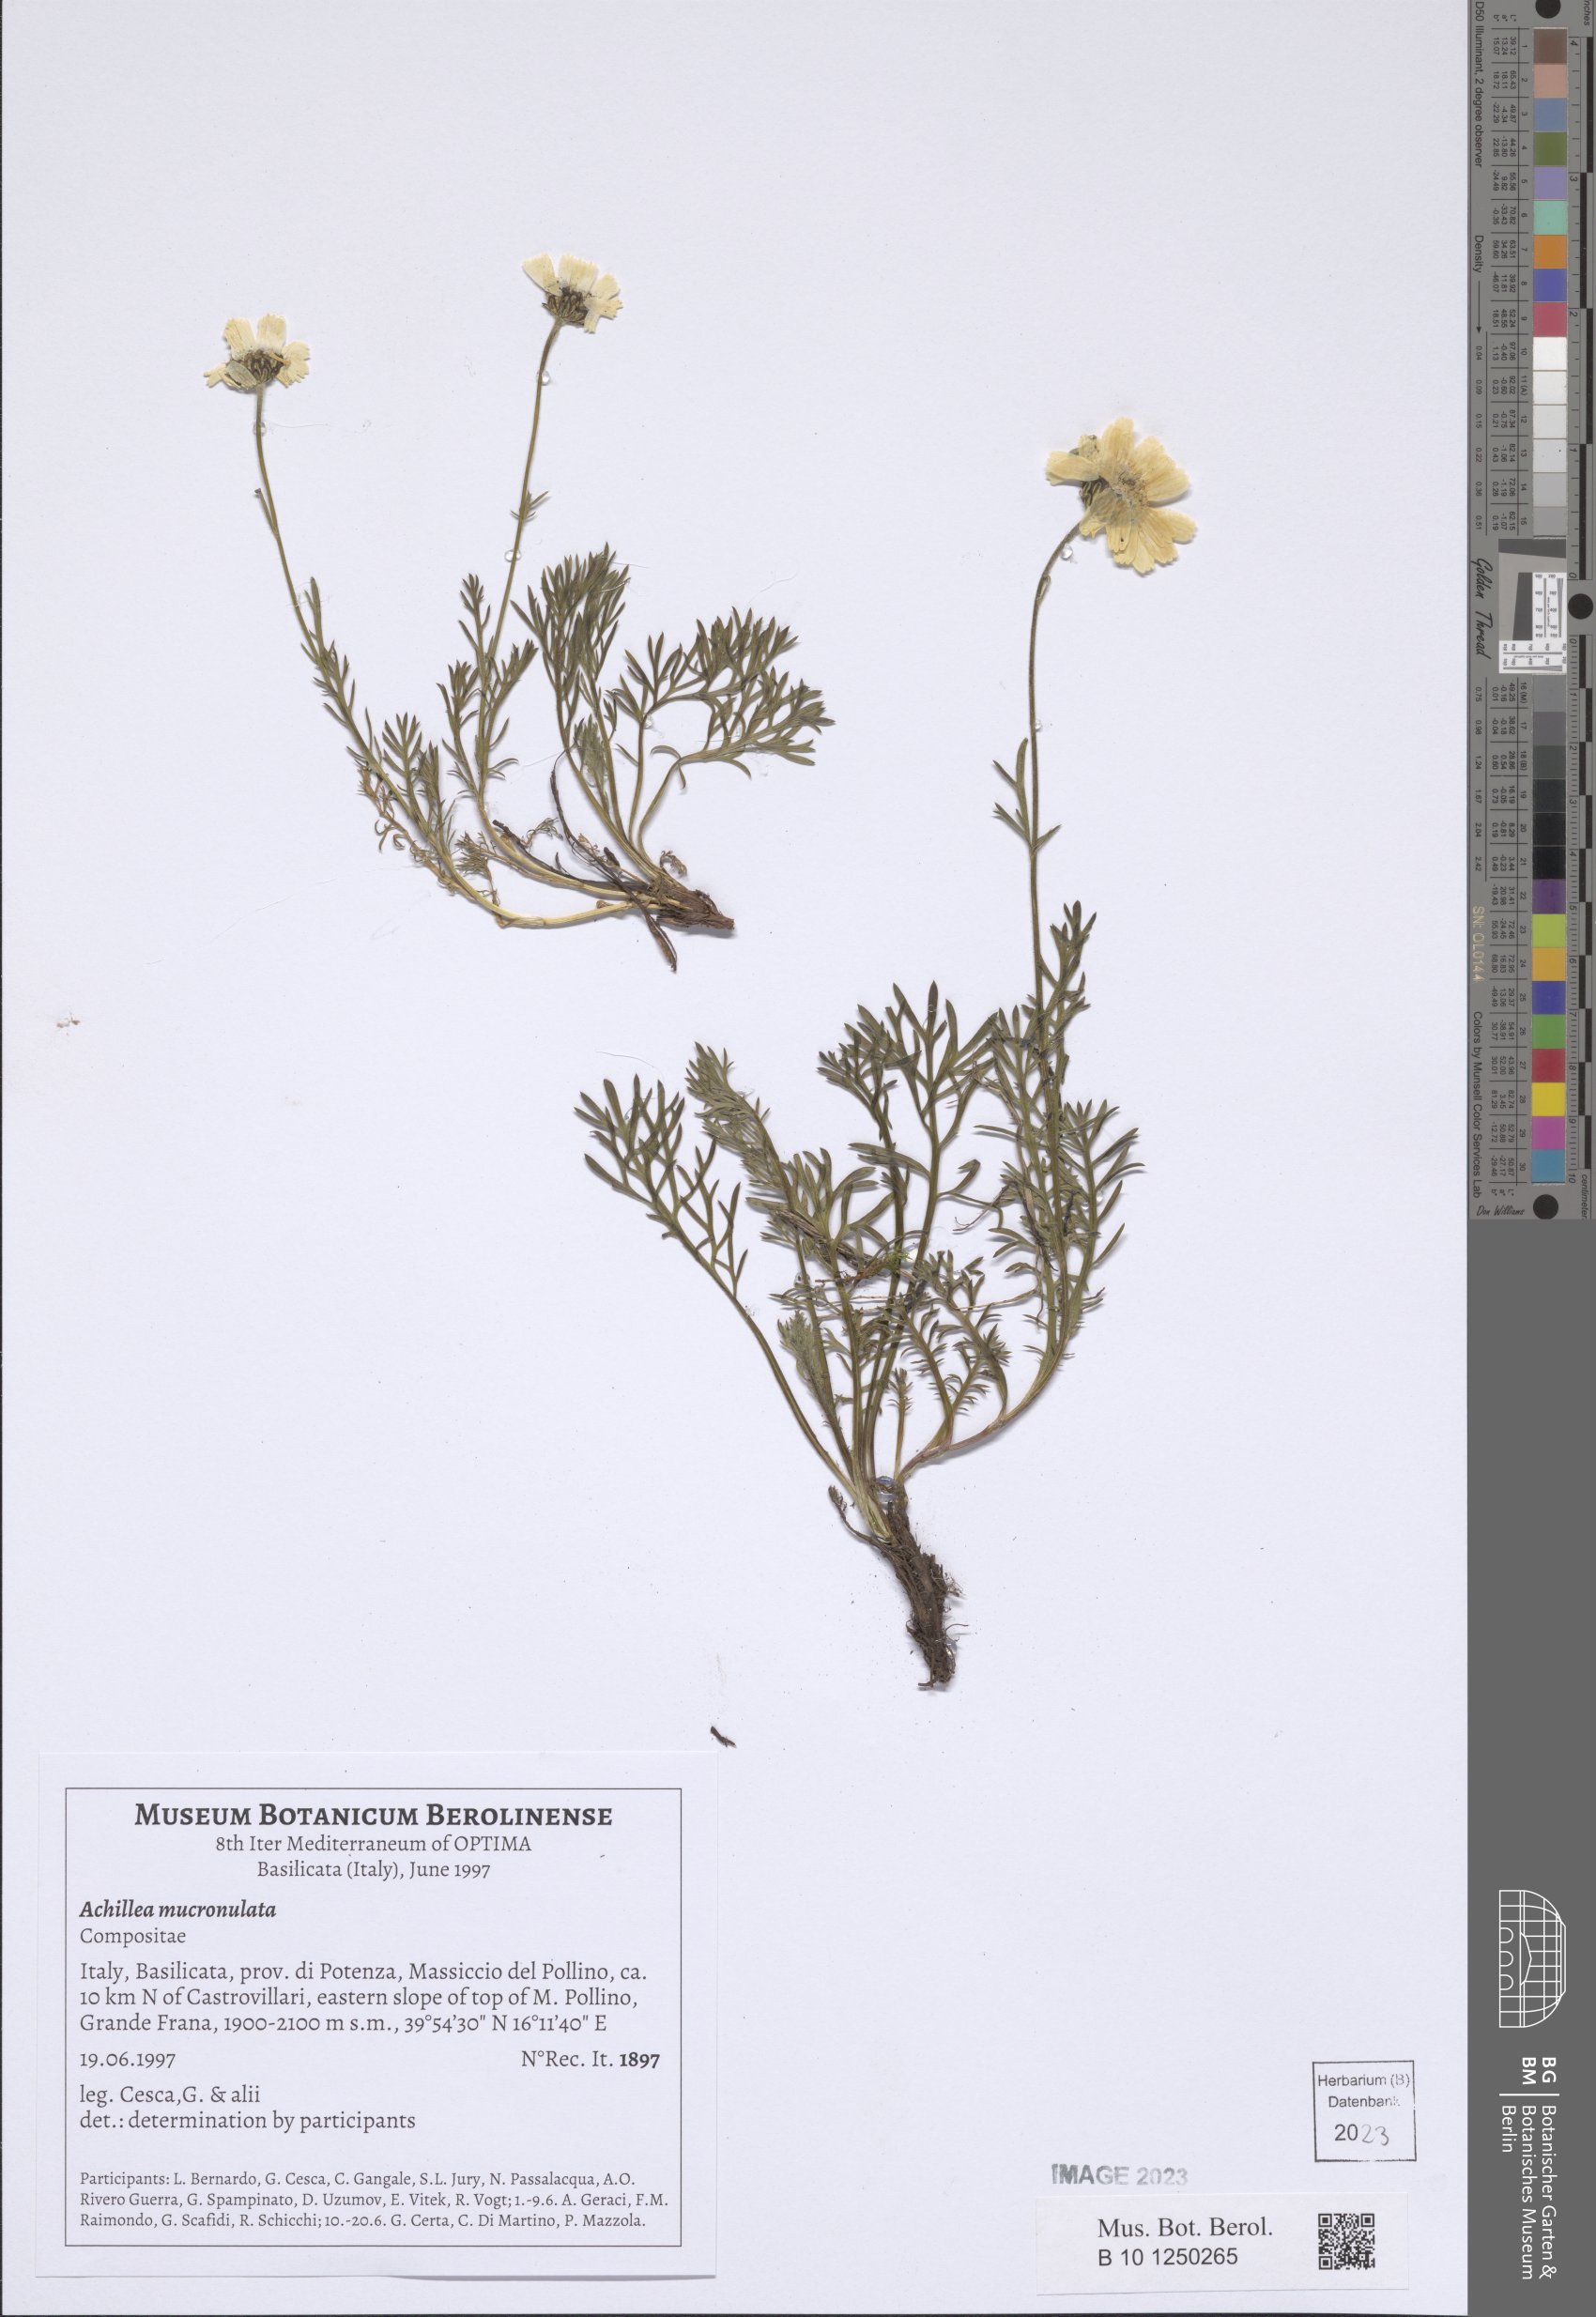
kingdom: Plantae
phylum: Tracheophyta
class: Magnoliopsida
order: Asterales
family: Asteraceae
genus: Achillea
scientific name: Achillea barrelieri
